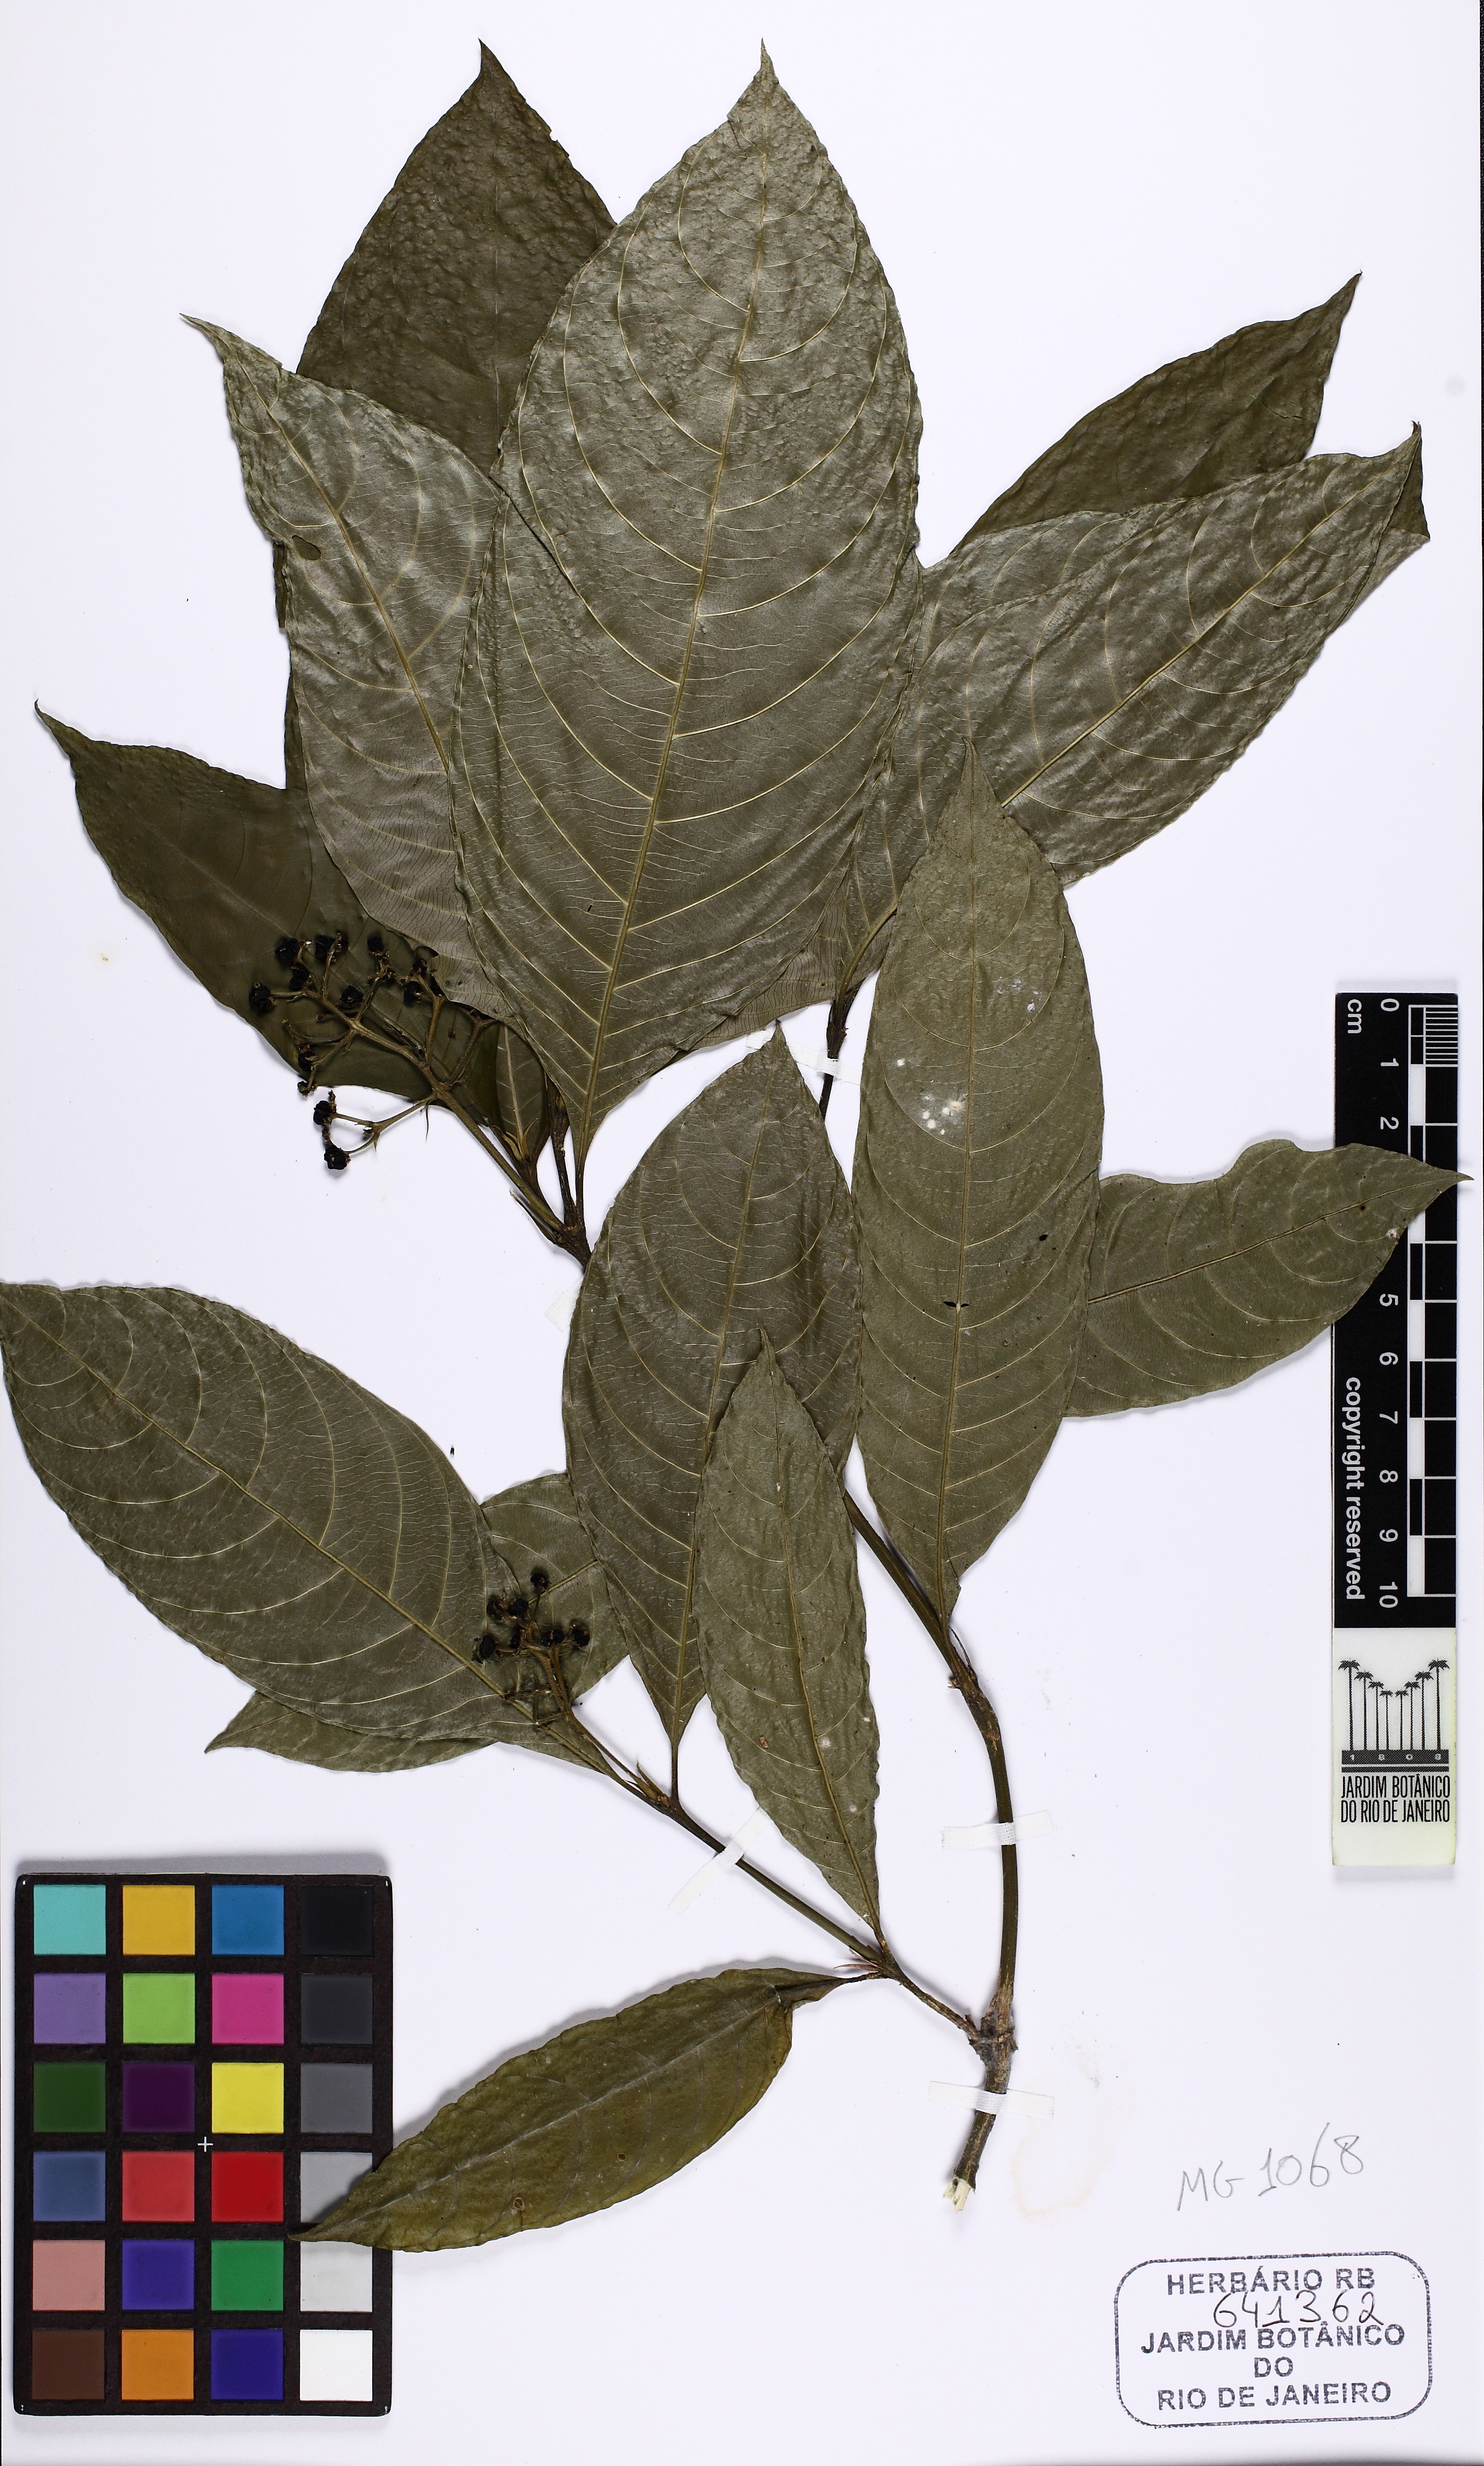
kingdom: Plantae
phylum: Tracheophyta
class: Magnoliopsida
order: Gentianales
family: Rubiaceae
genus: Palicourea
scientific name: Palicourea racemosa
